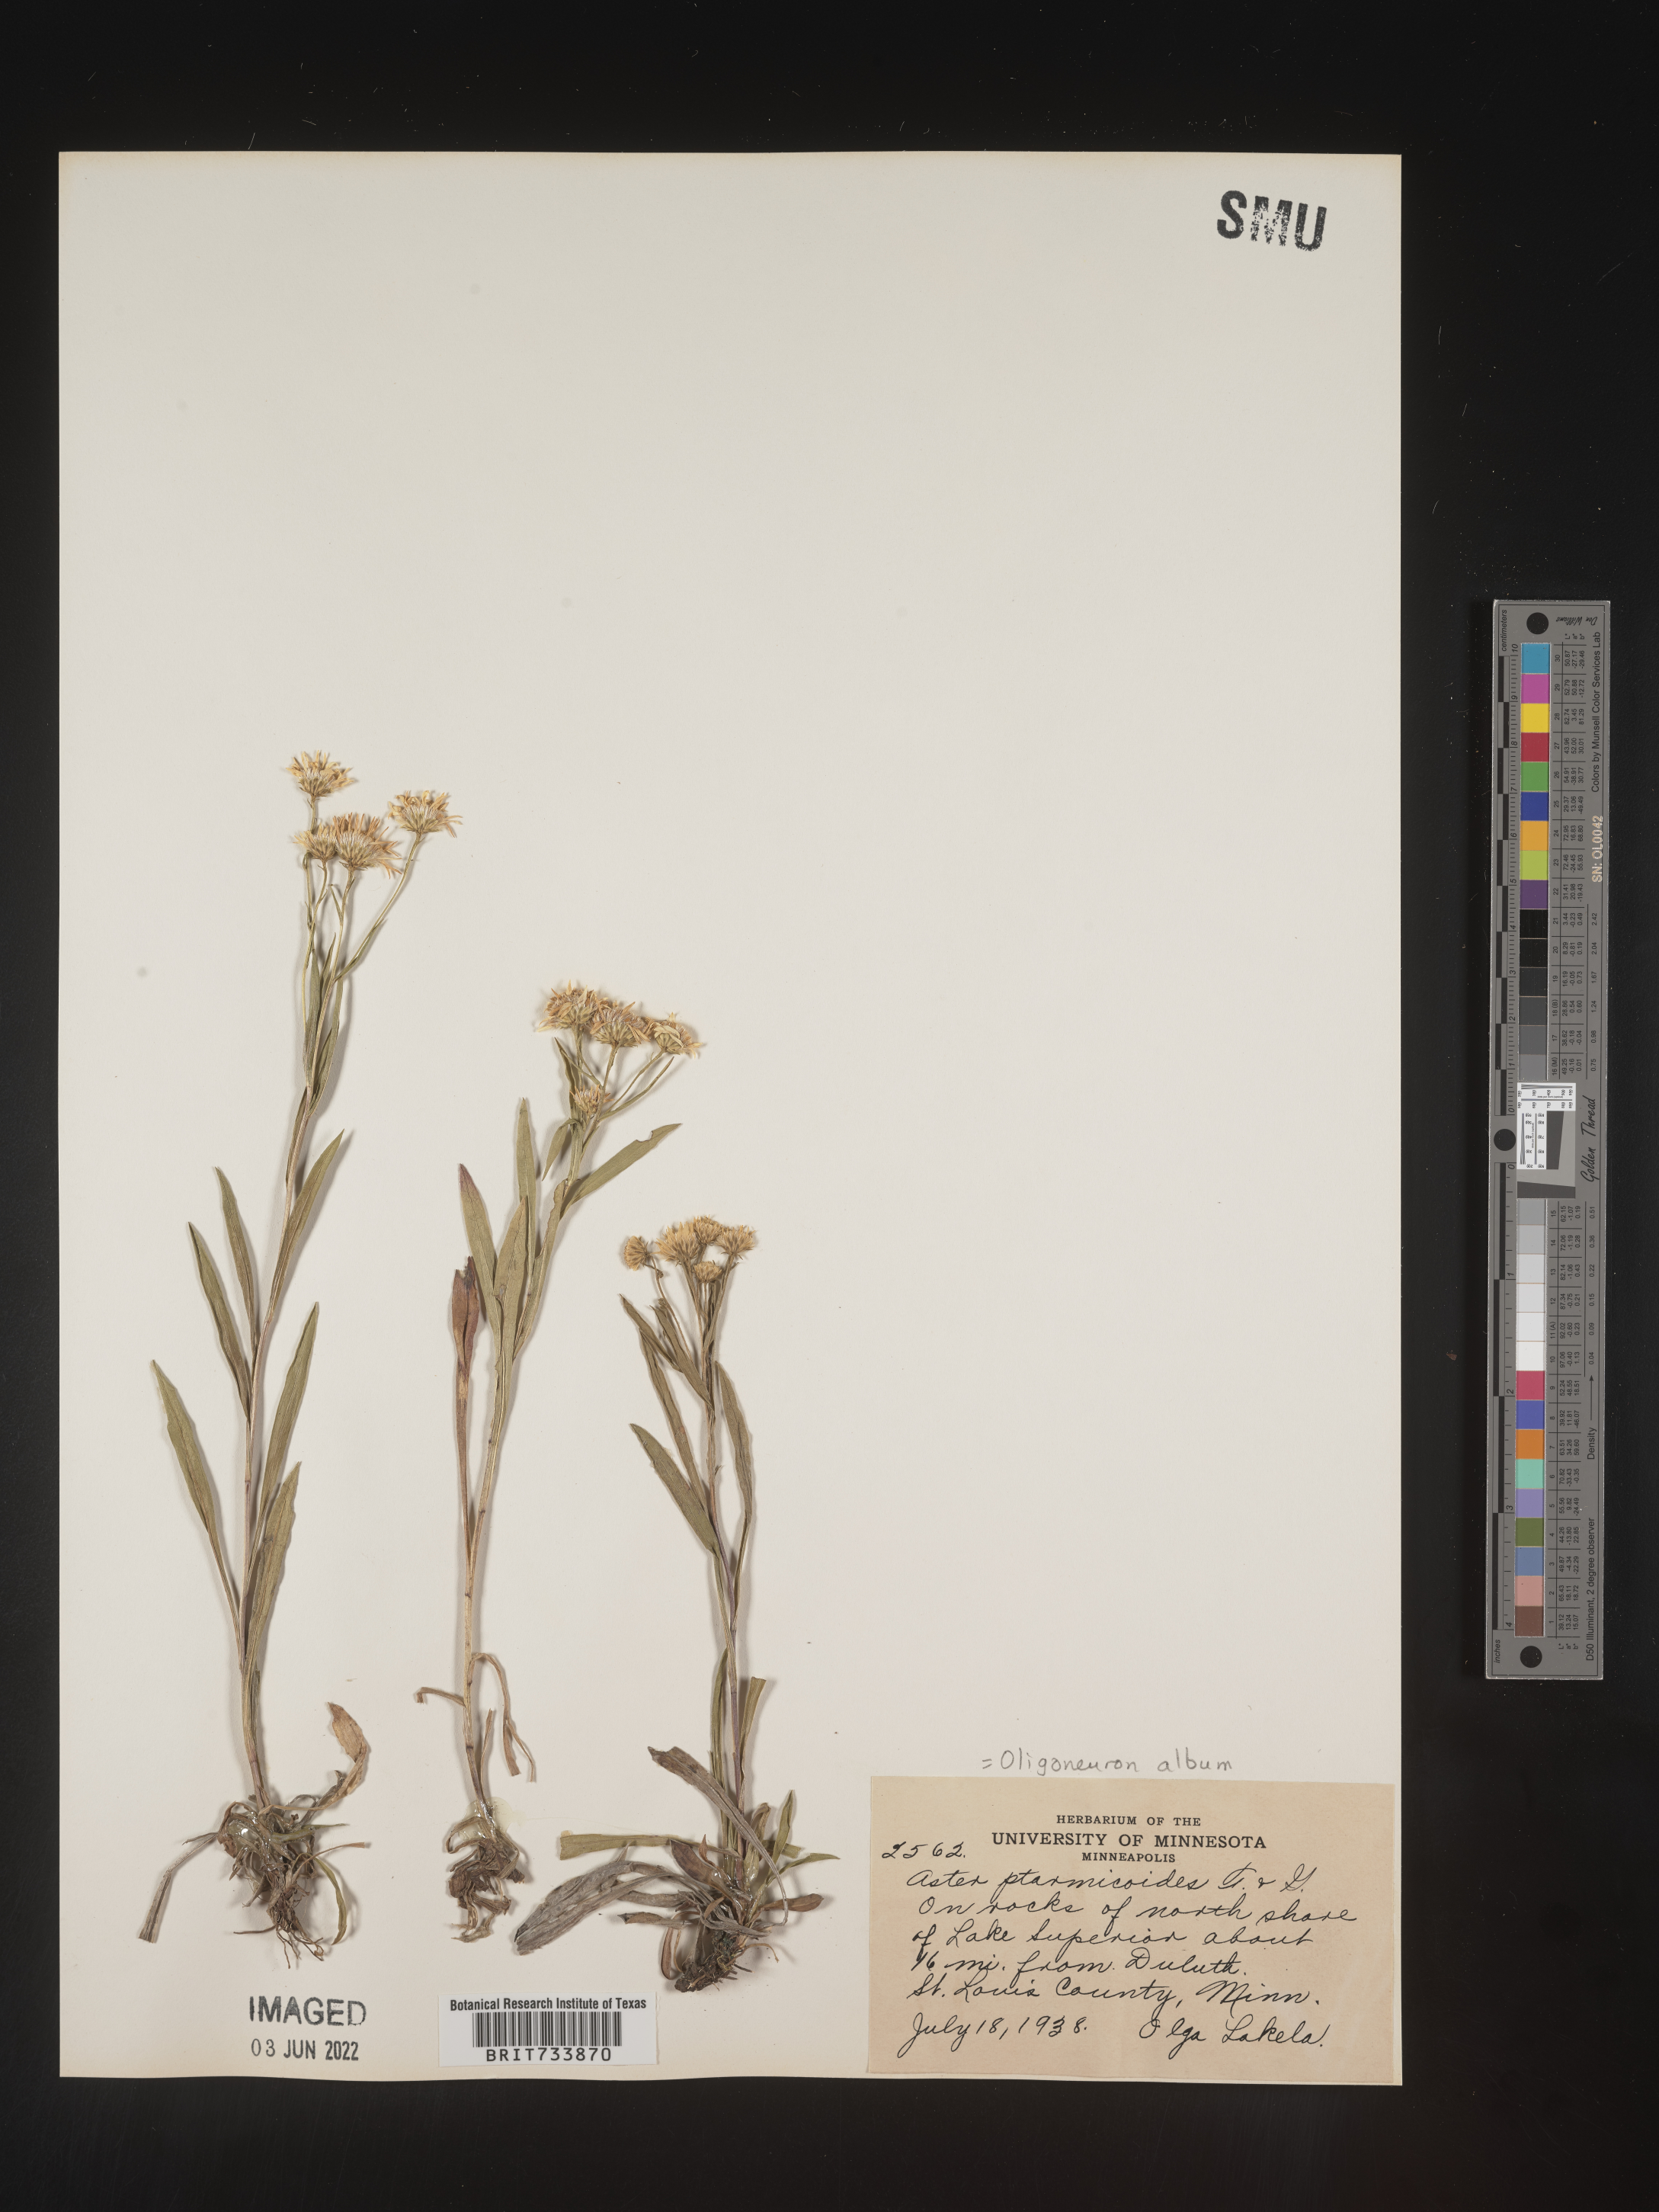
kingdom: Plantae
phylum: Tracheophyta
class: Magnoliopsida
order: Asterales
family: Asteraceae
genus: Solidago
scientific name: Solidago ptarmicoides
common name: White flat-top goldenrod
